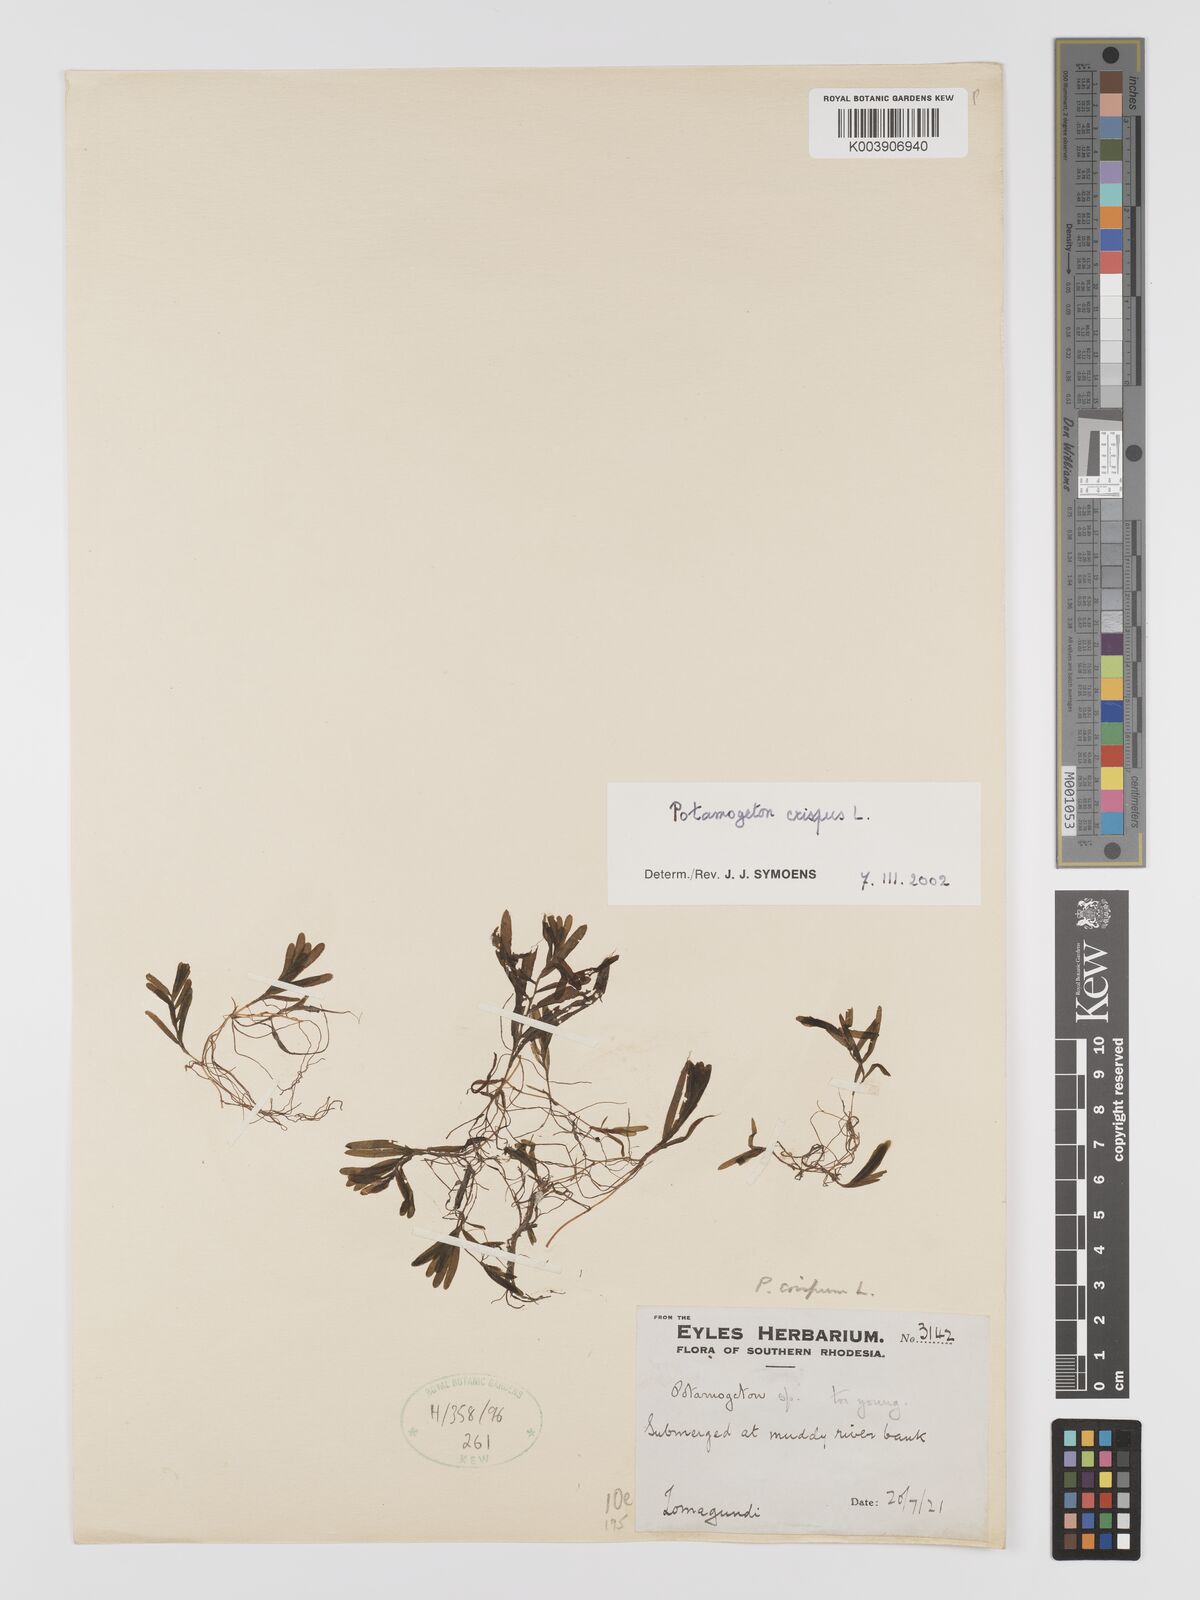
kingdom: Plantae
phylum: Tracheophyta
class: Liliopsida
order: Alismatales
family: Potamogetonaceae
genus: Potamogeton
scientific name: Potamogeton crispus
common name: Curled pondweed
